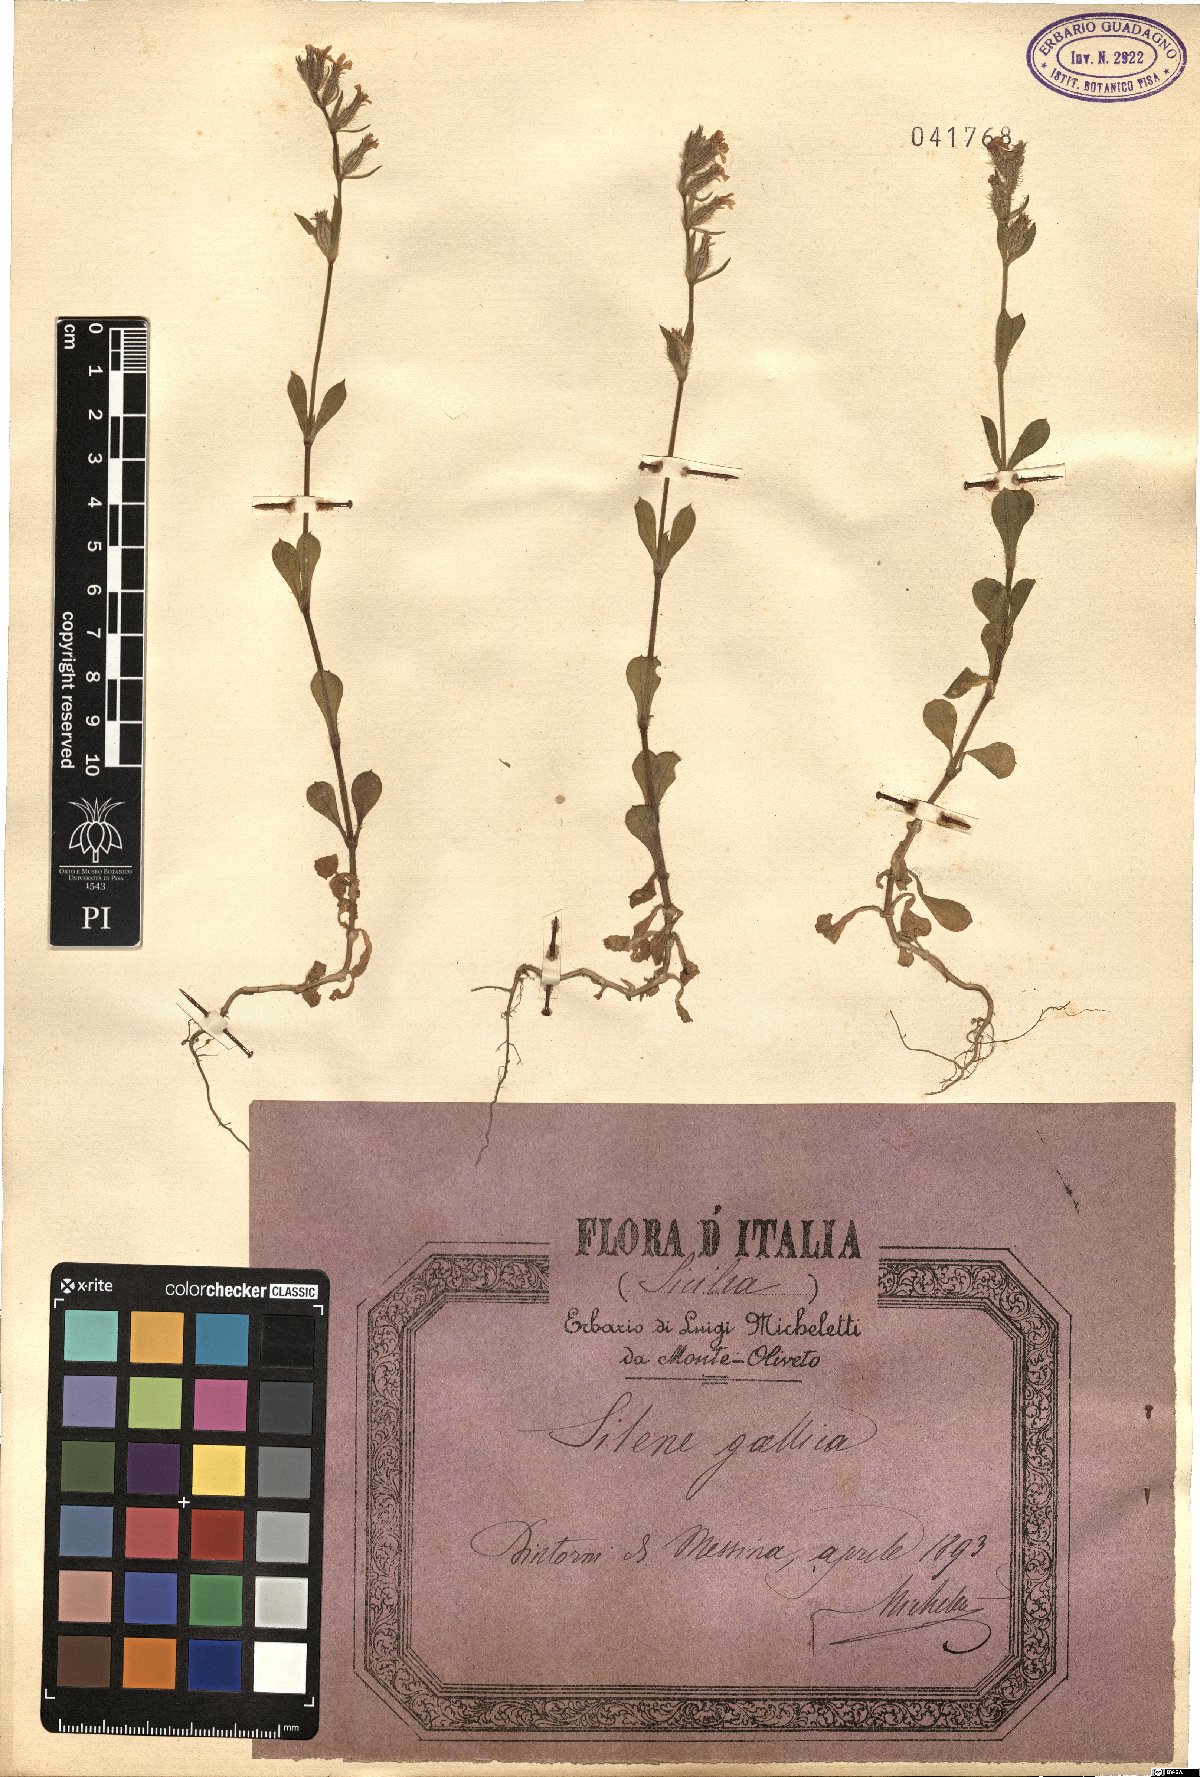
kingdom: Plantae
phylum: Tracheophyta
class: Magnoliopsida
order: Caryophyllales
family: Caryophyllaceae
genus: Silene
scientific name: Silene gallica
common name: Small-flowered catchfly
